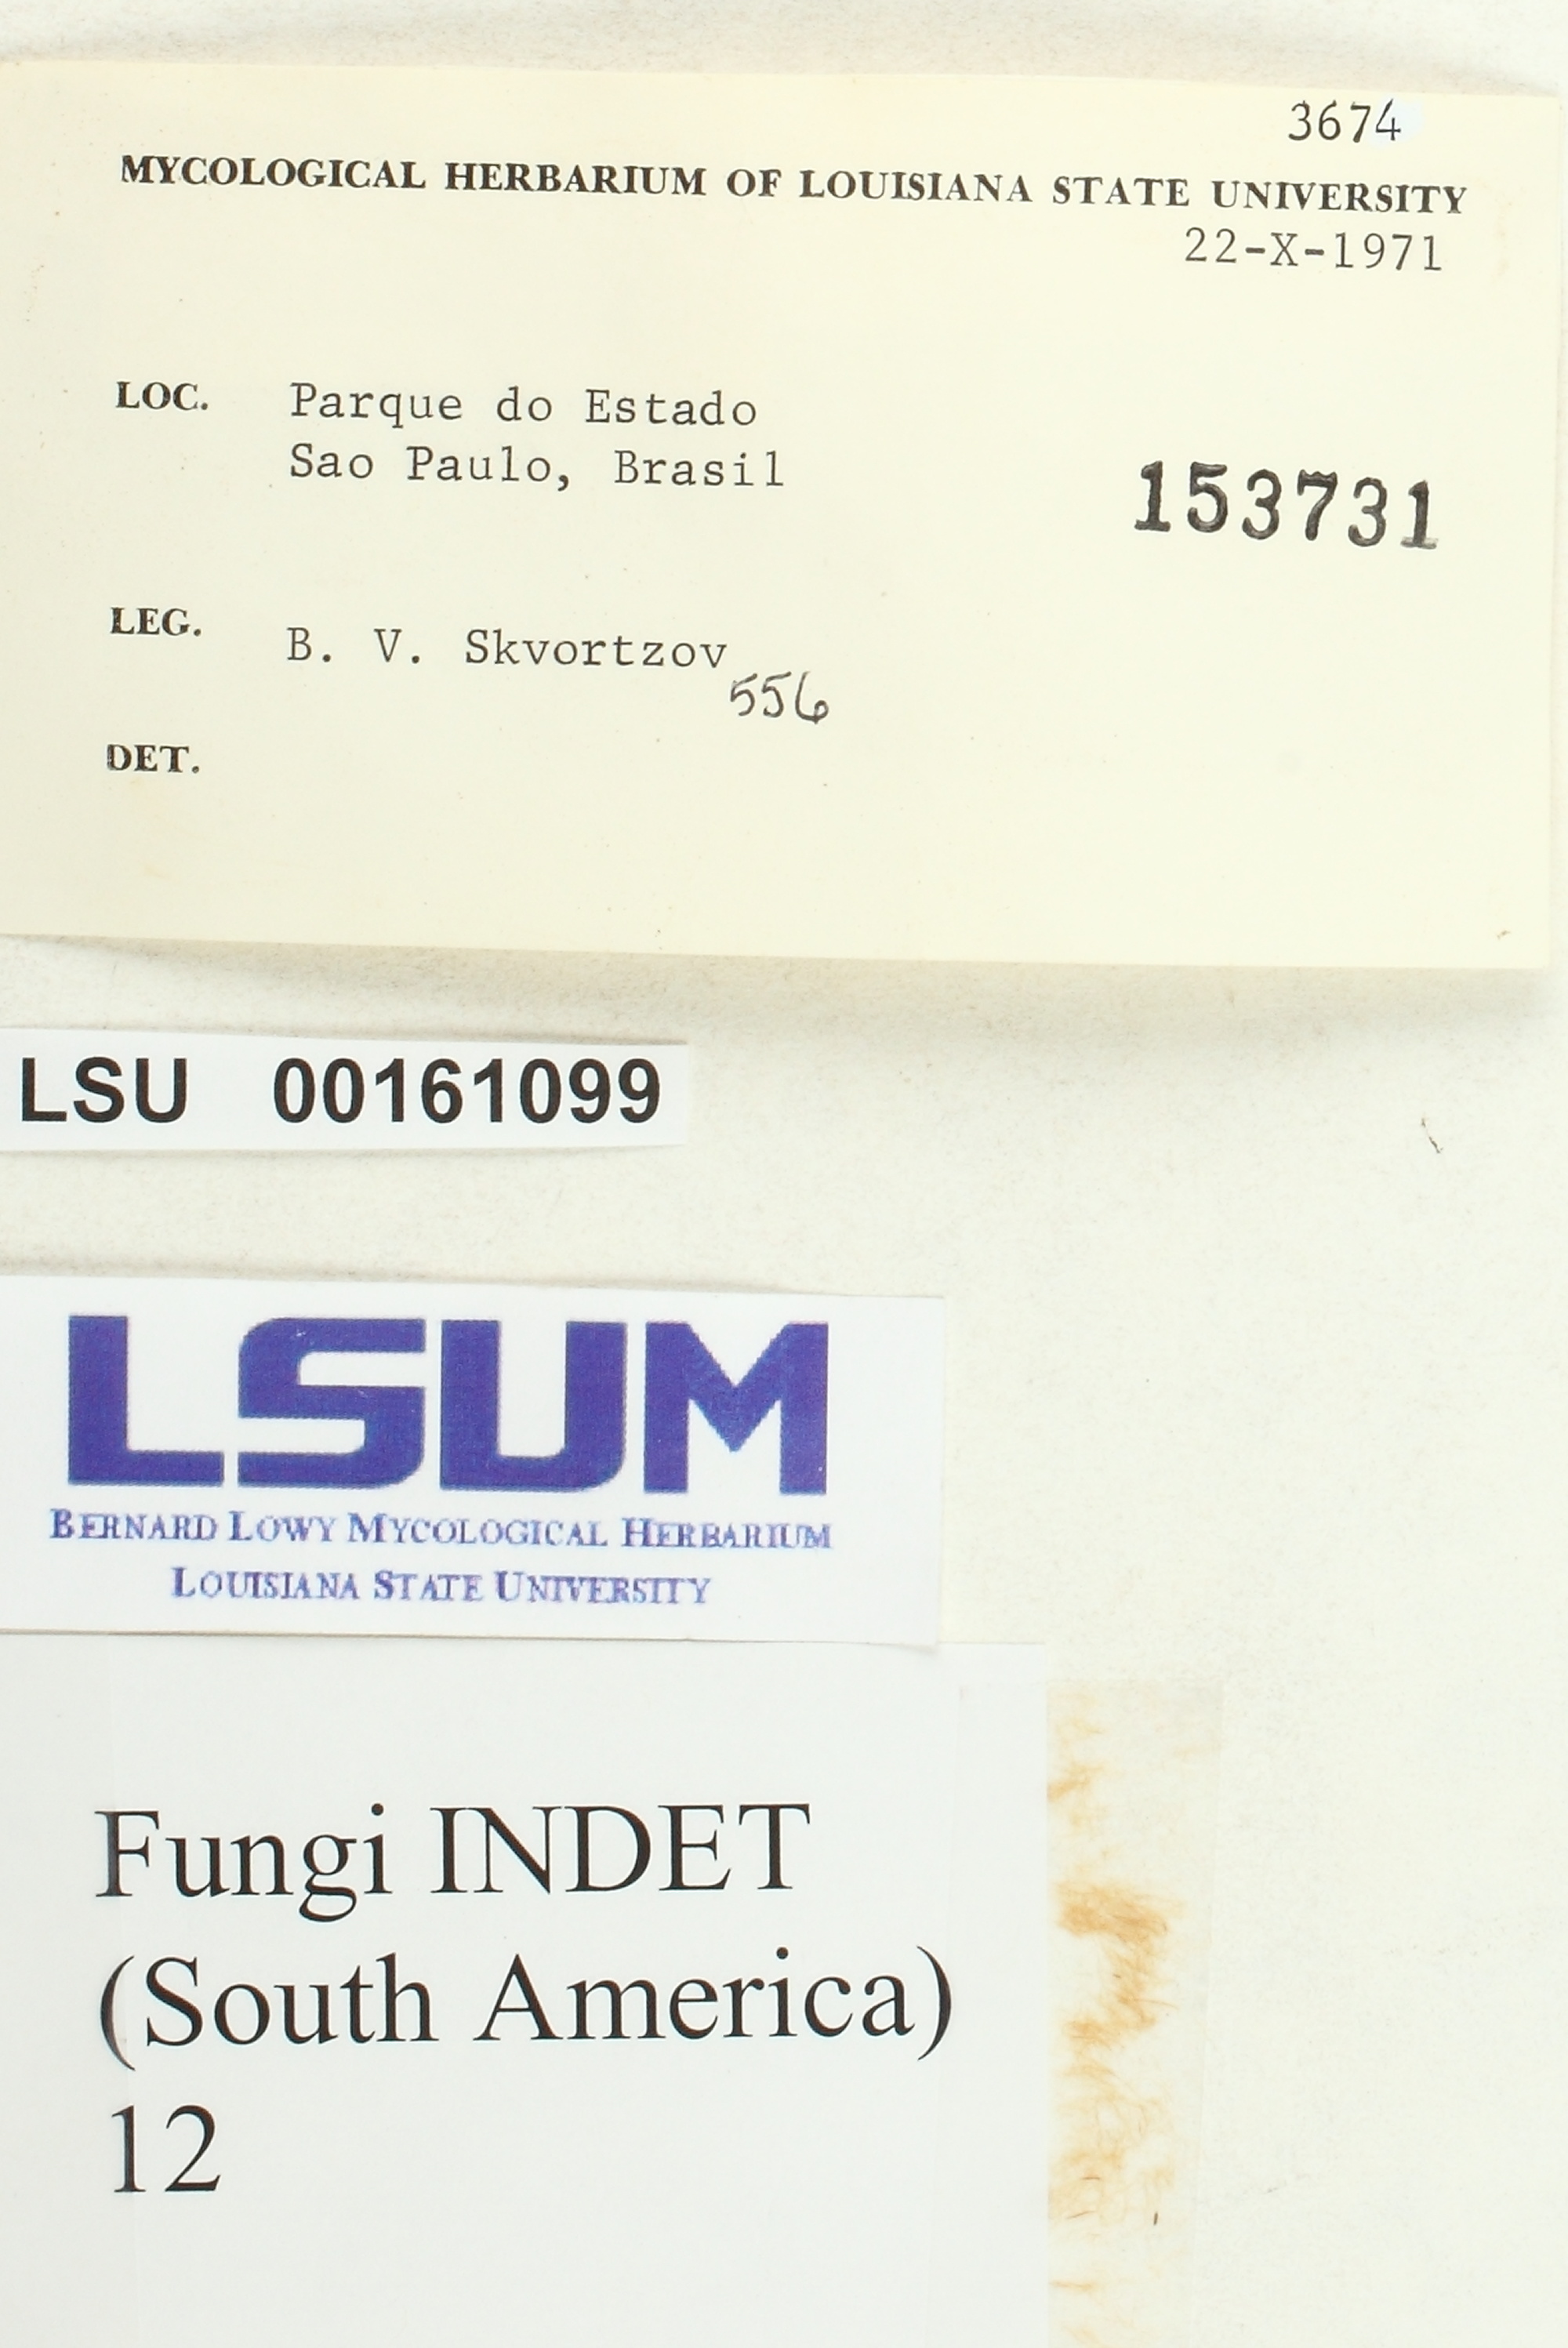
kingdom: Fungi
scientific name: Fungi
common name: Fungi
